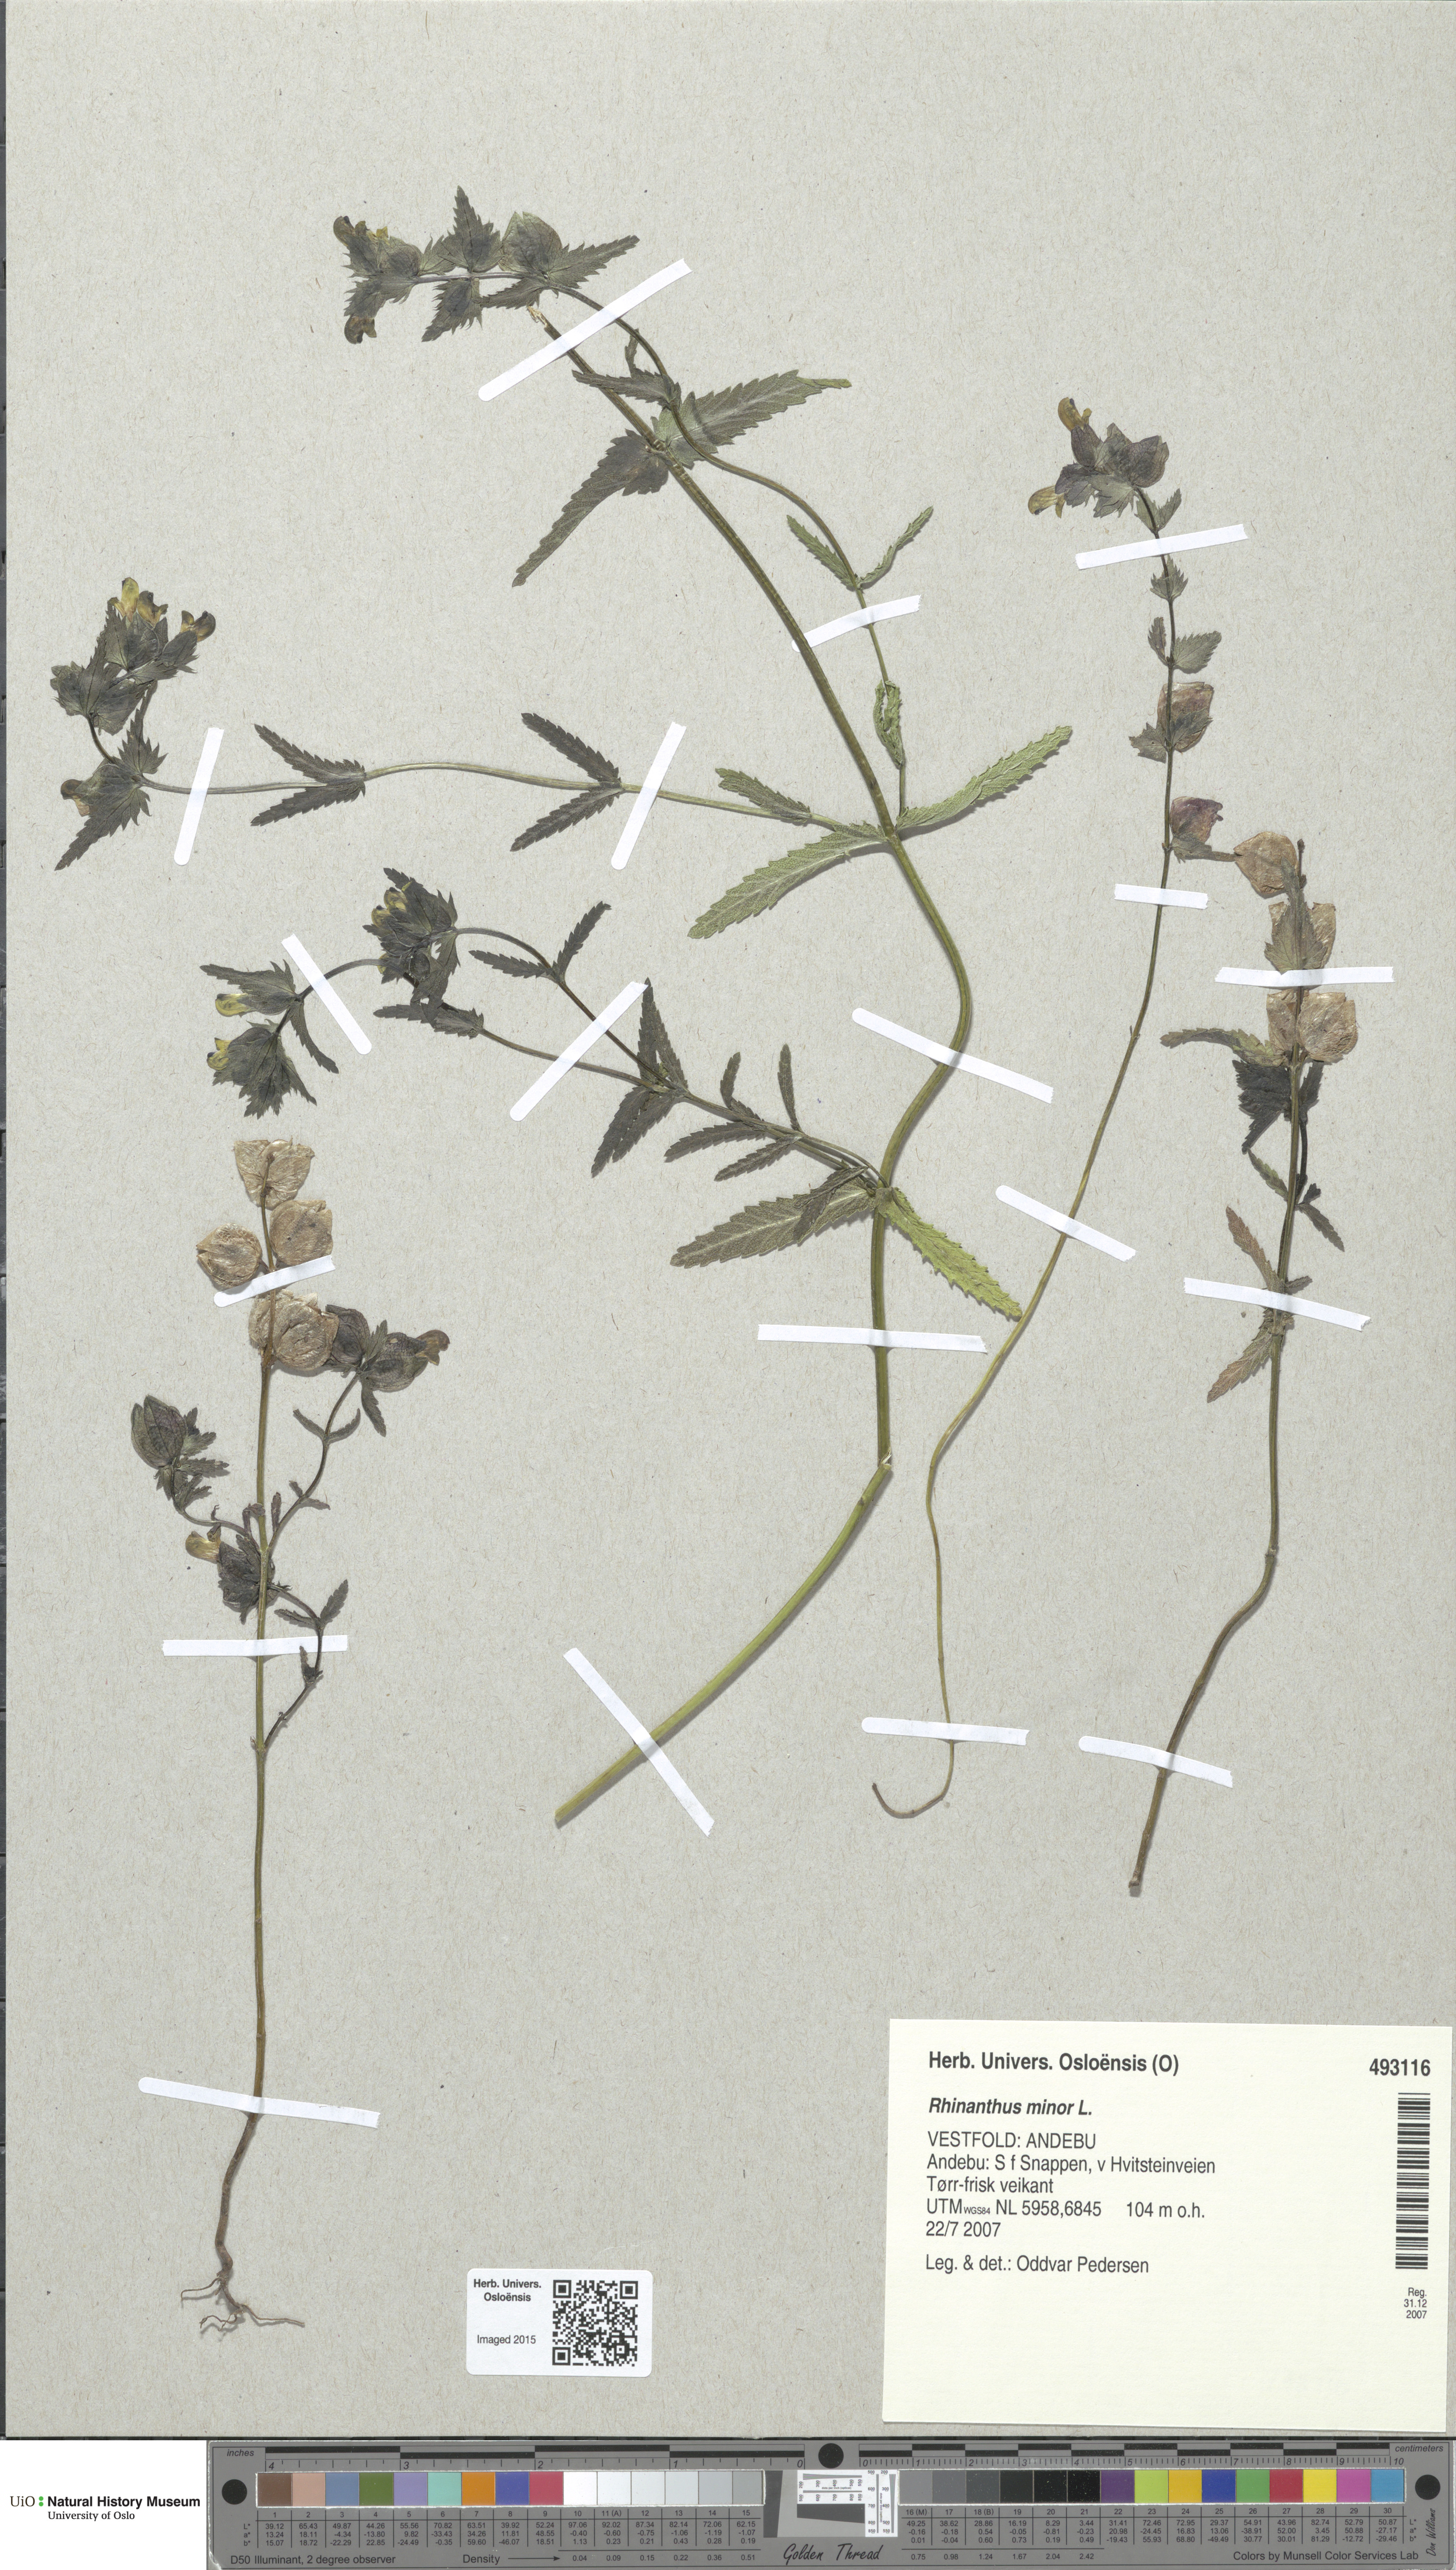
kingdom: Plantae
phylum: Tracheophyta
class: Magnoliopsida
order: Lamiales
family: Orobanchaceae
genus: Rhinanthus
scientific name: Rhinanthus minor
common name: Yellow-rattle
